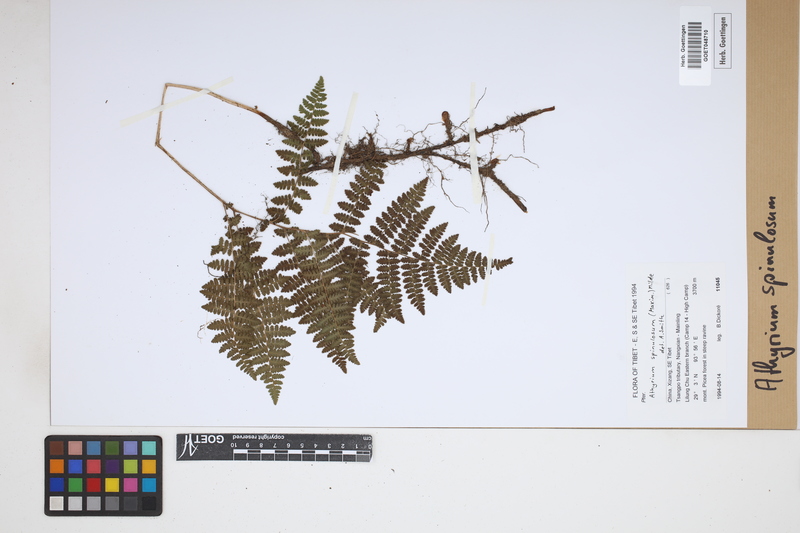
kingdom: Plantae
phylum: Tracheophyta
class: Polypodiopsida
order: Polypodiales
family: Athyriaceae
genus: Athyrium
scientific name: Athyrium spinulosum
